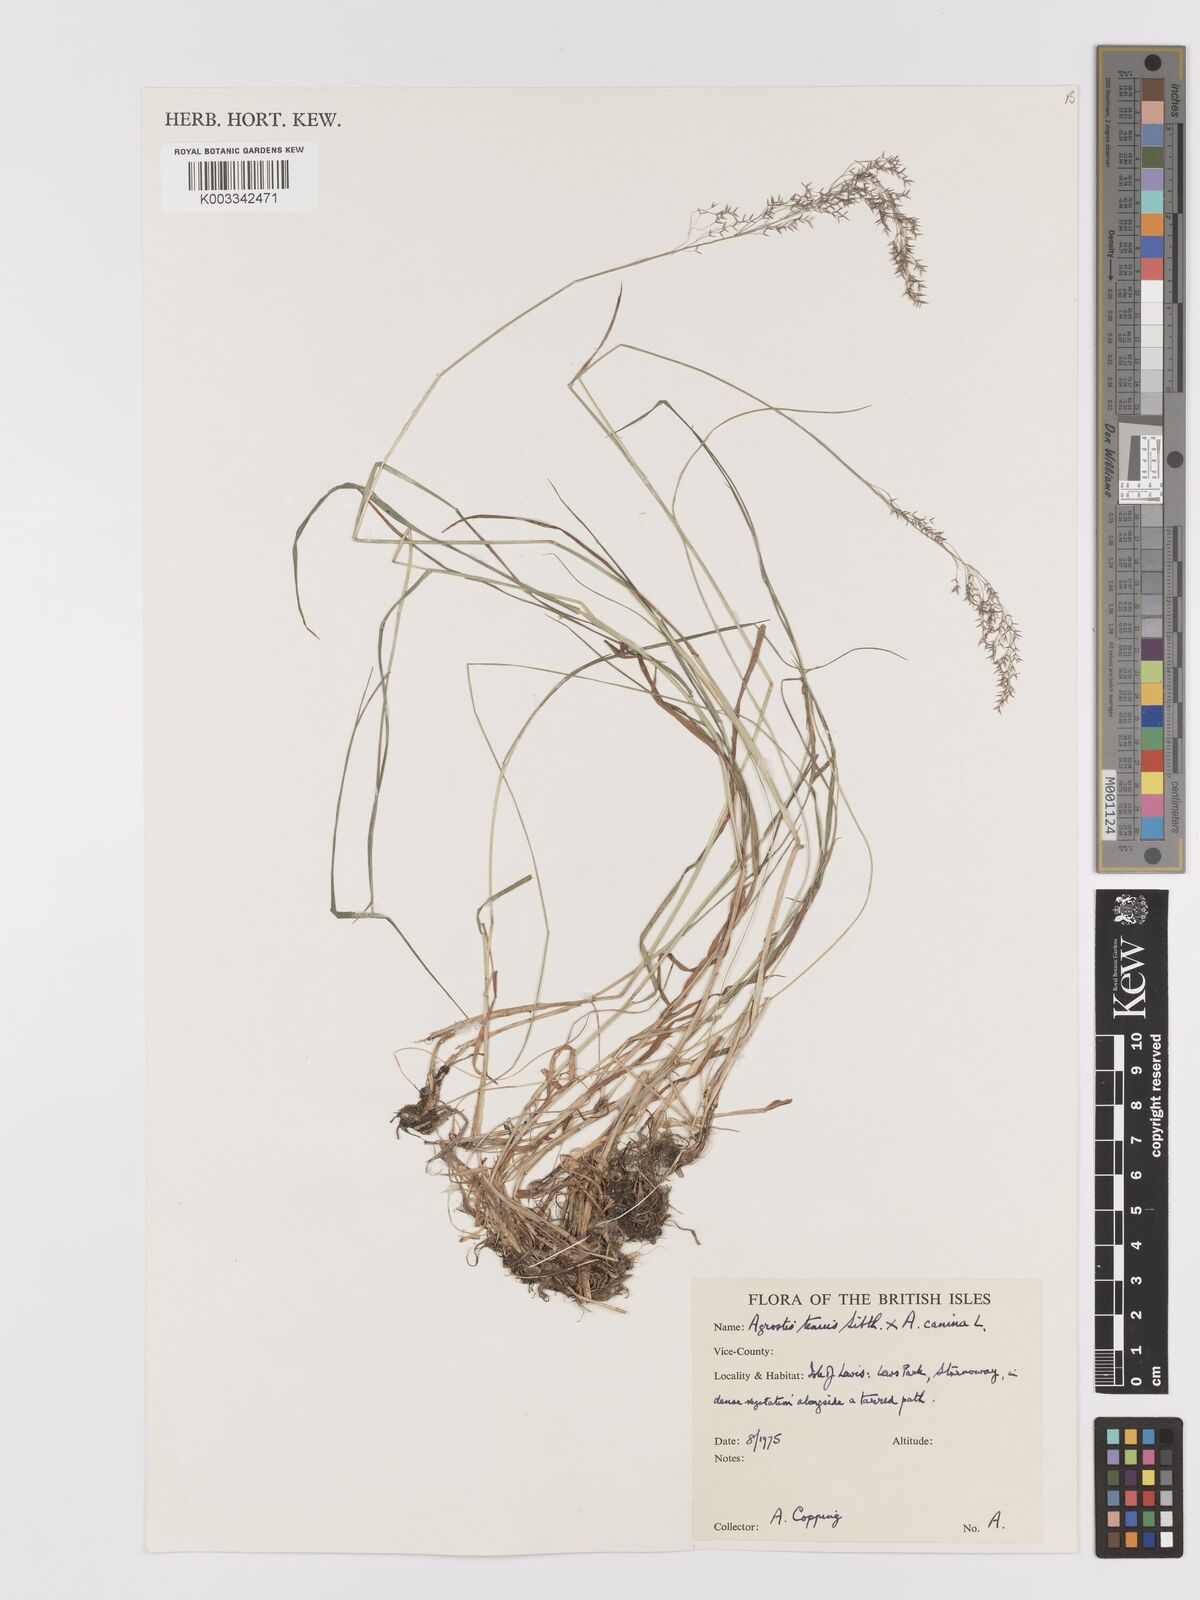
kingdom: Plantae
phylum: Tracheophyta
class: Liliopsida
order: Poales
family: Poaceae
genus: Agrostis
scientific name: Agrostis capillaris
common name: Colonial bentgrass
